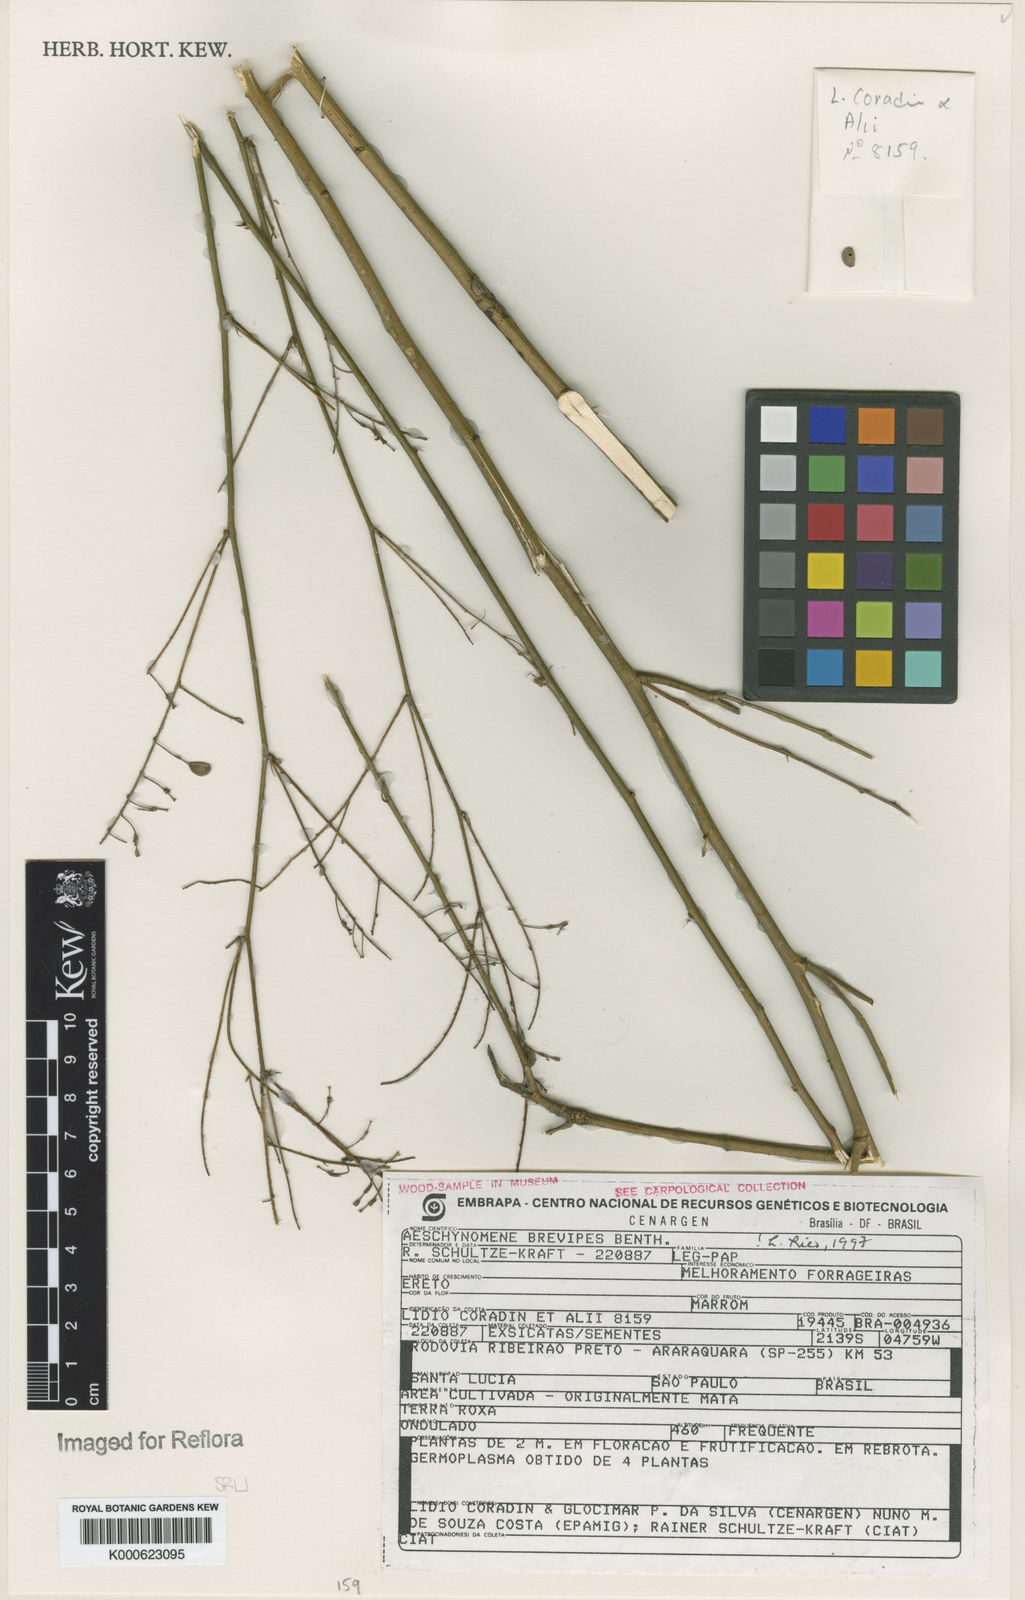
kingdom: Plantae
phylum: Tracheophyta
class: Magnoliopsida
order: Fabales
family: Fabaceae
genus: Ctenodon
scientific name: Ctenodon brevipes
